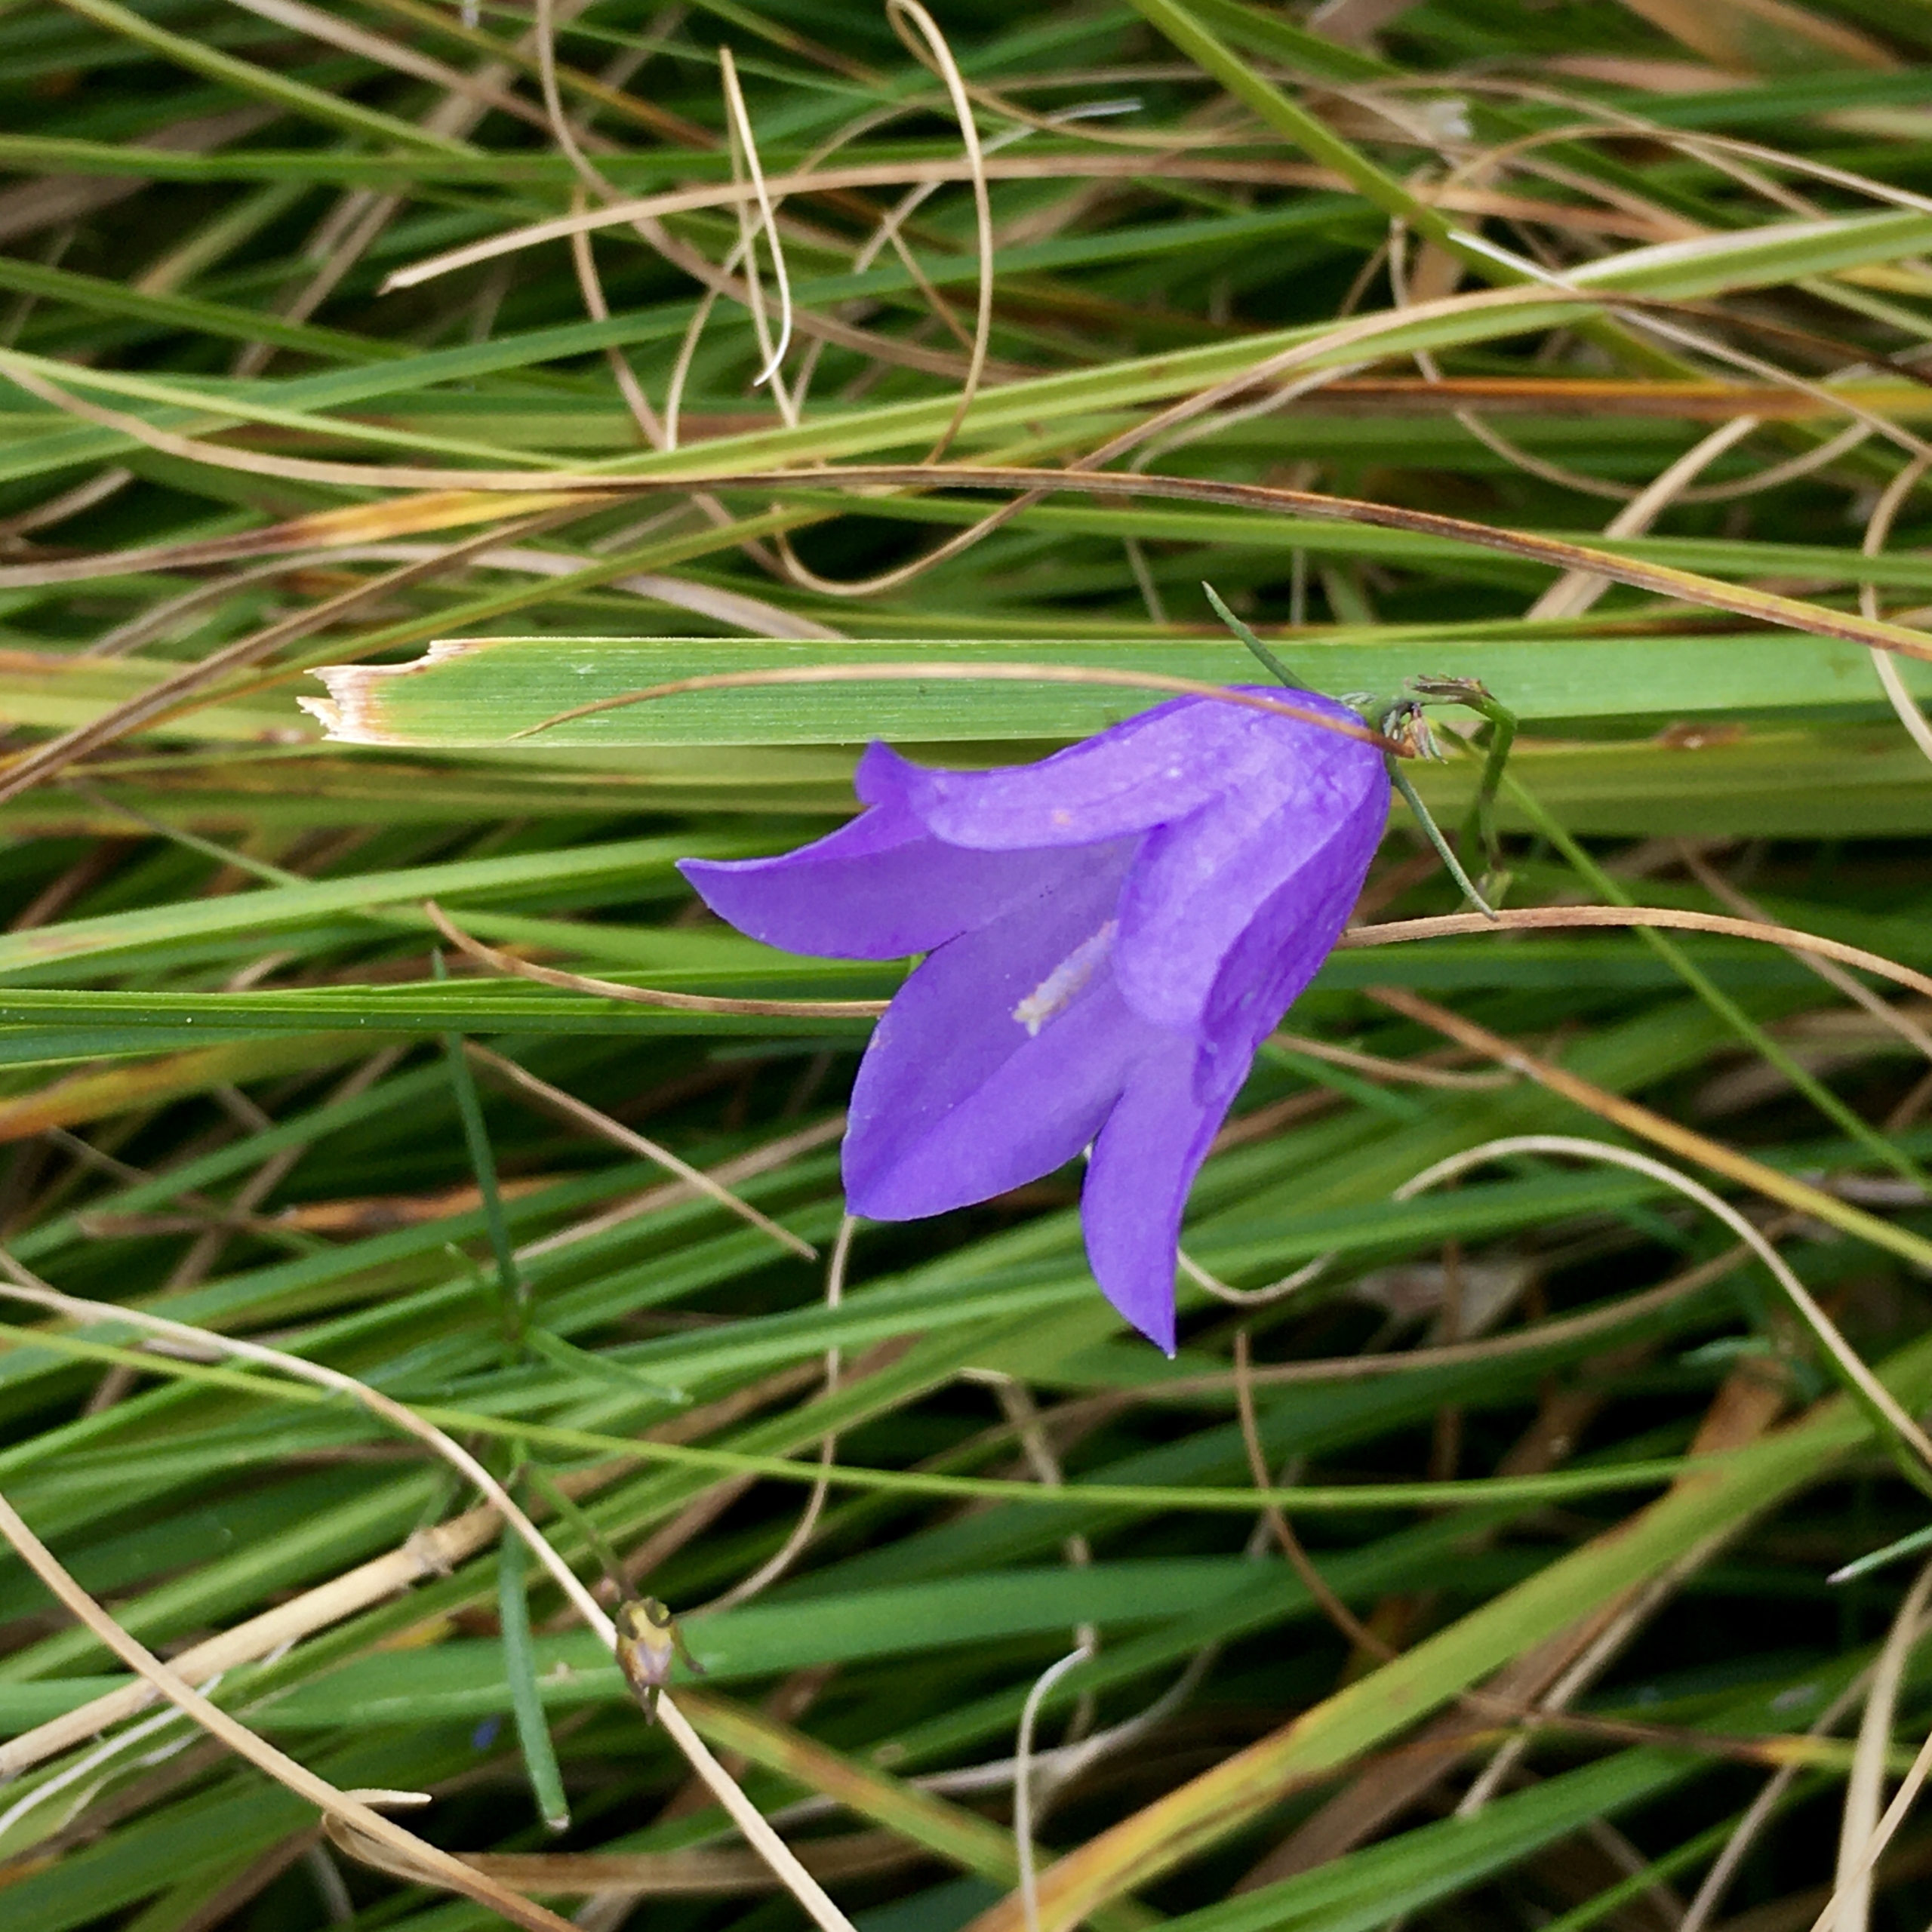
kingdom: Plantae
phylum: Tracheophyta
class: Magnoliopsida
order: Asterales
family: Campanulaceae
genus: Campanula
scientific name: Campanula rotundifolia
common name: Liden klokke
